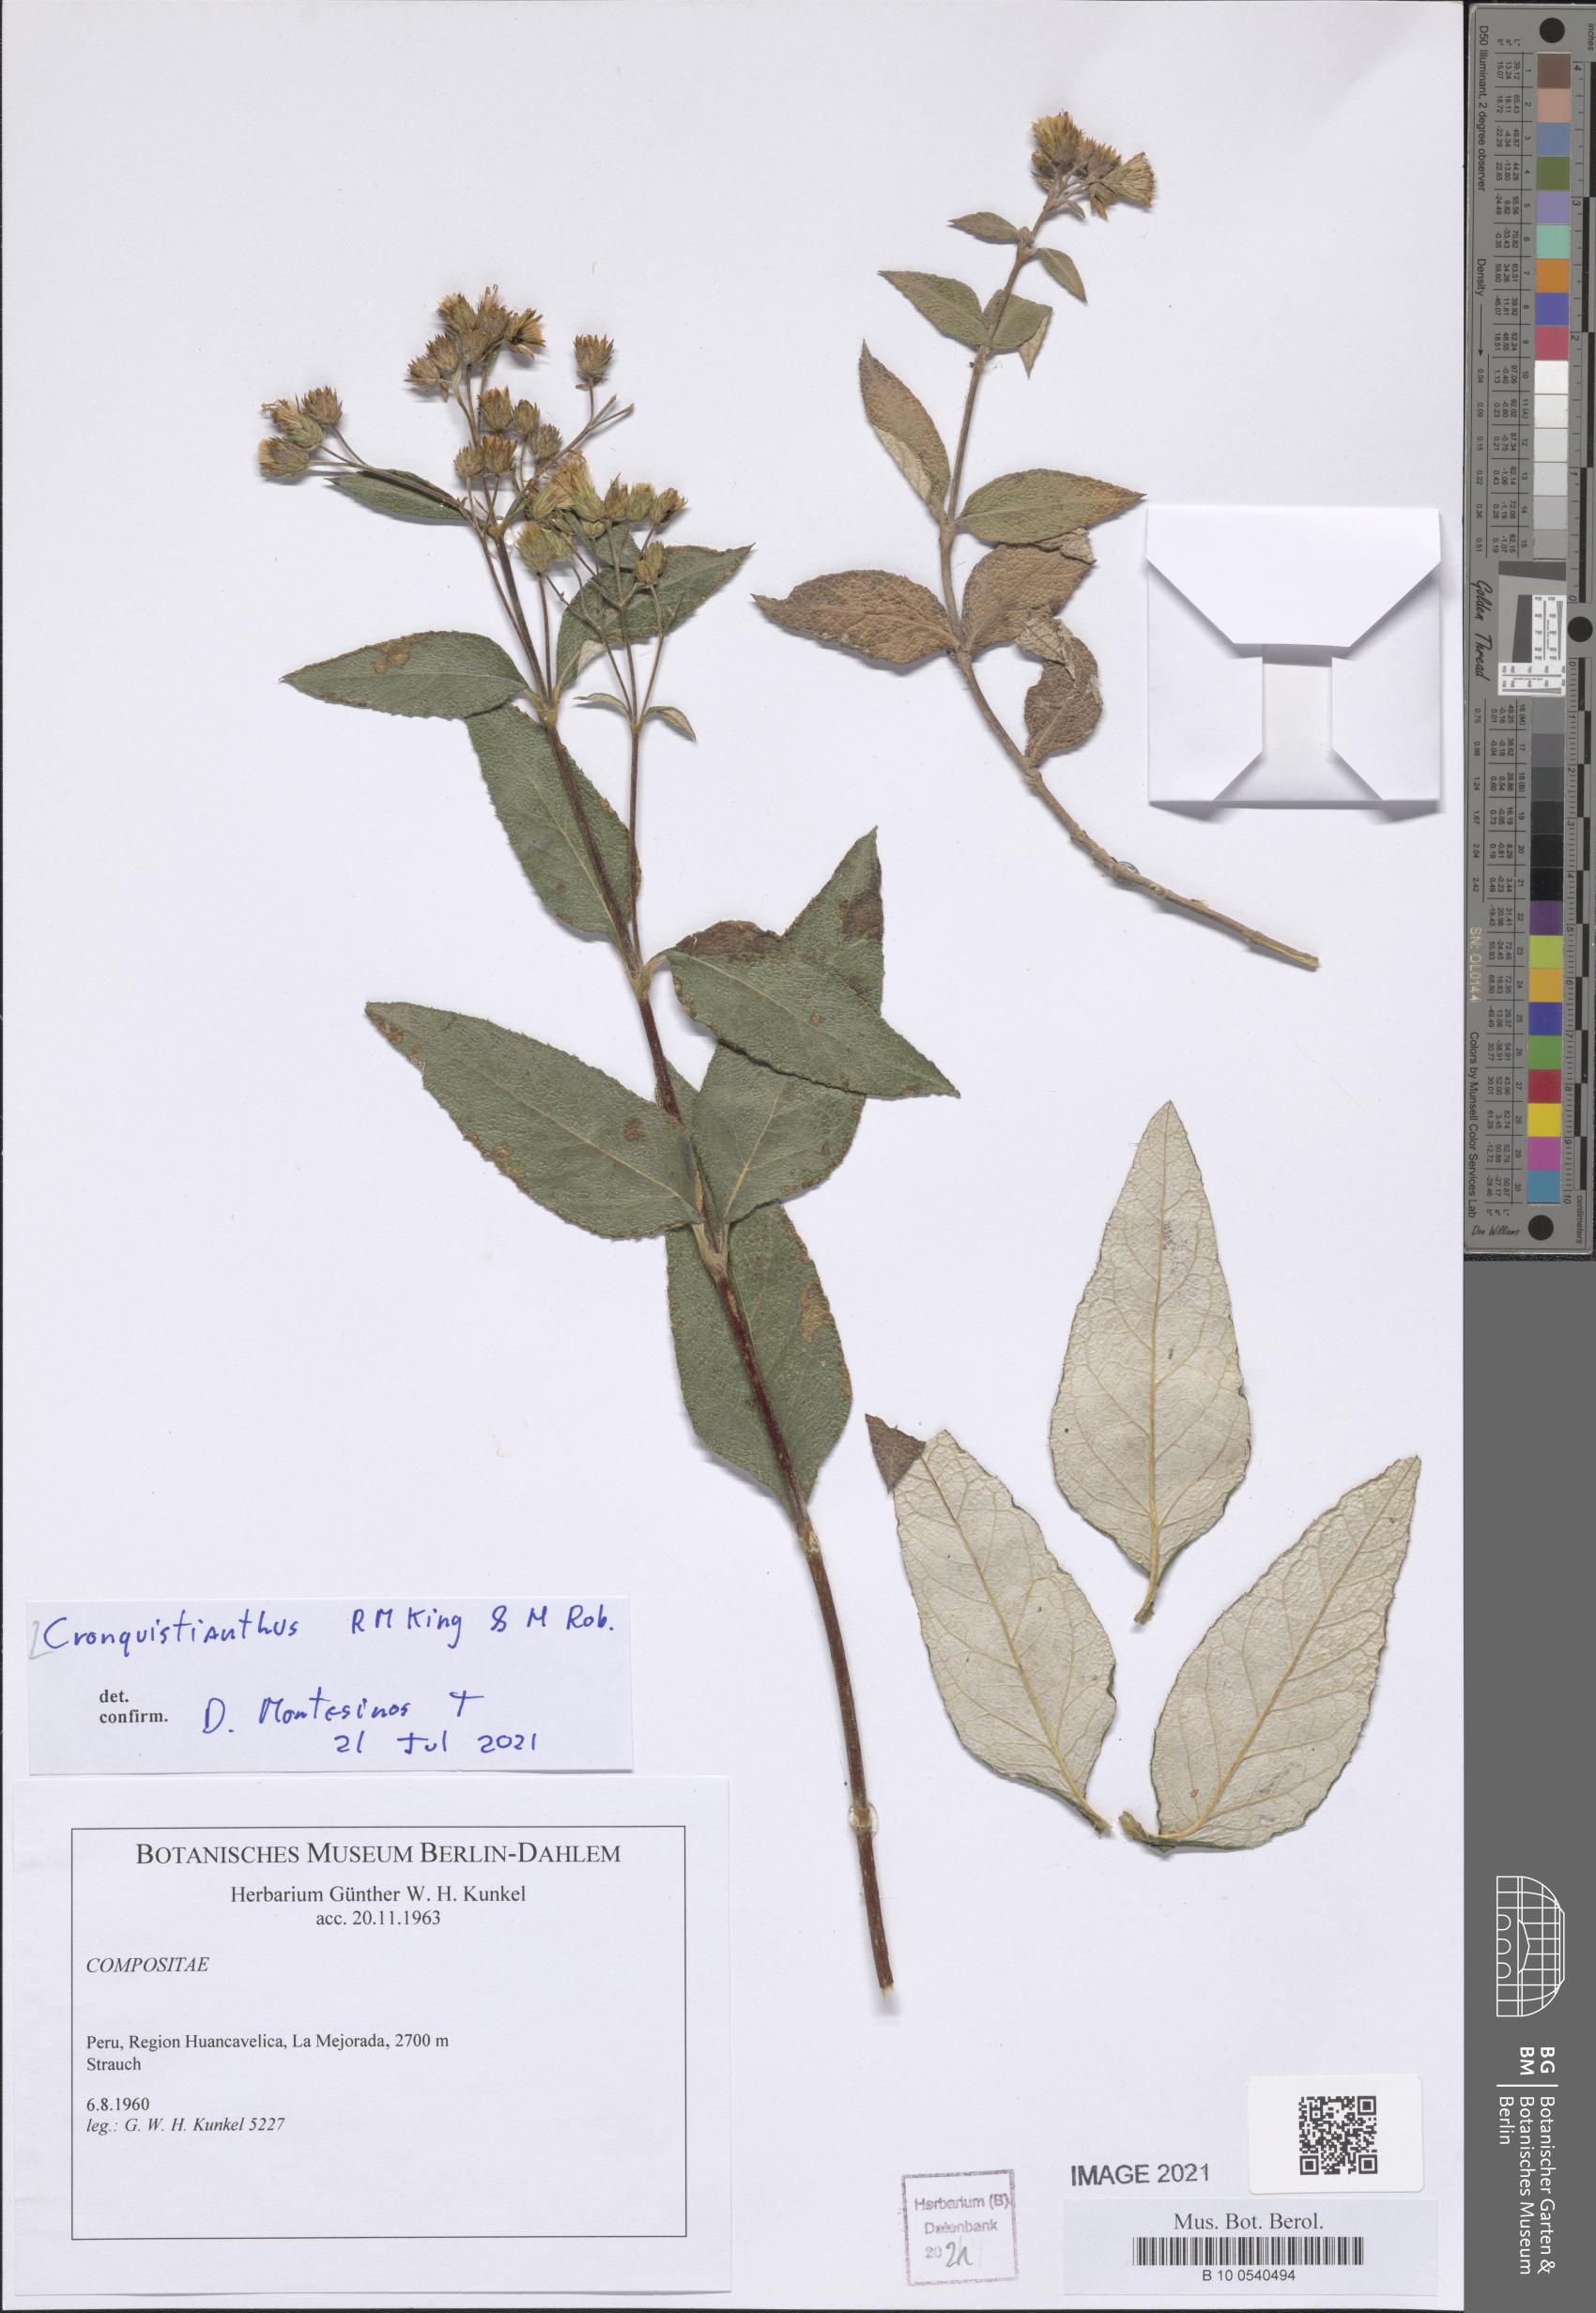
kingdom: Plantae
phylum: Tracheophyta
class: Magnoliopsida
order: Asterales
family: Asteraceae
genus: Cronquistianthus
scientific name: Cronquistianthus
